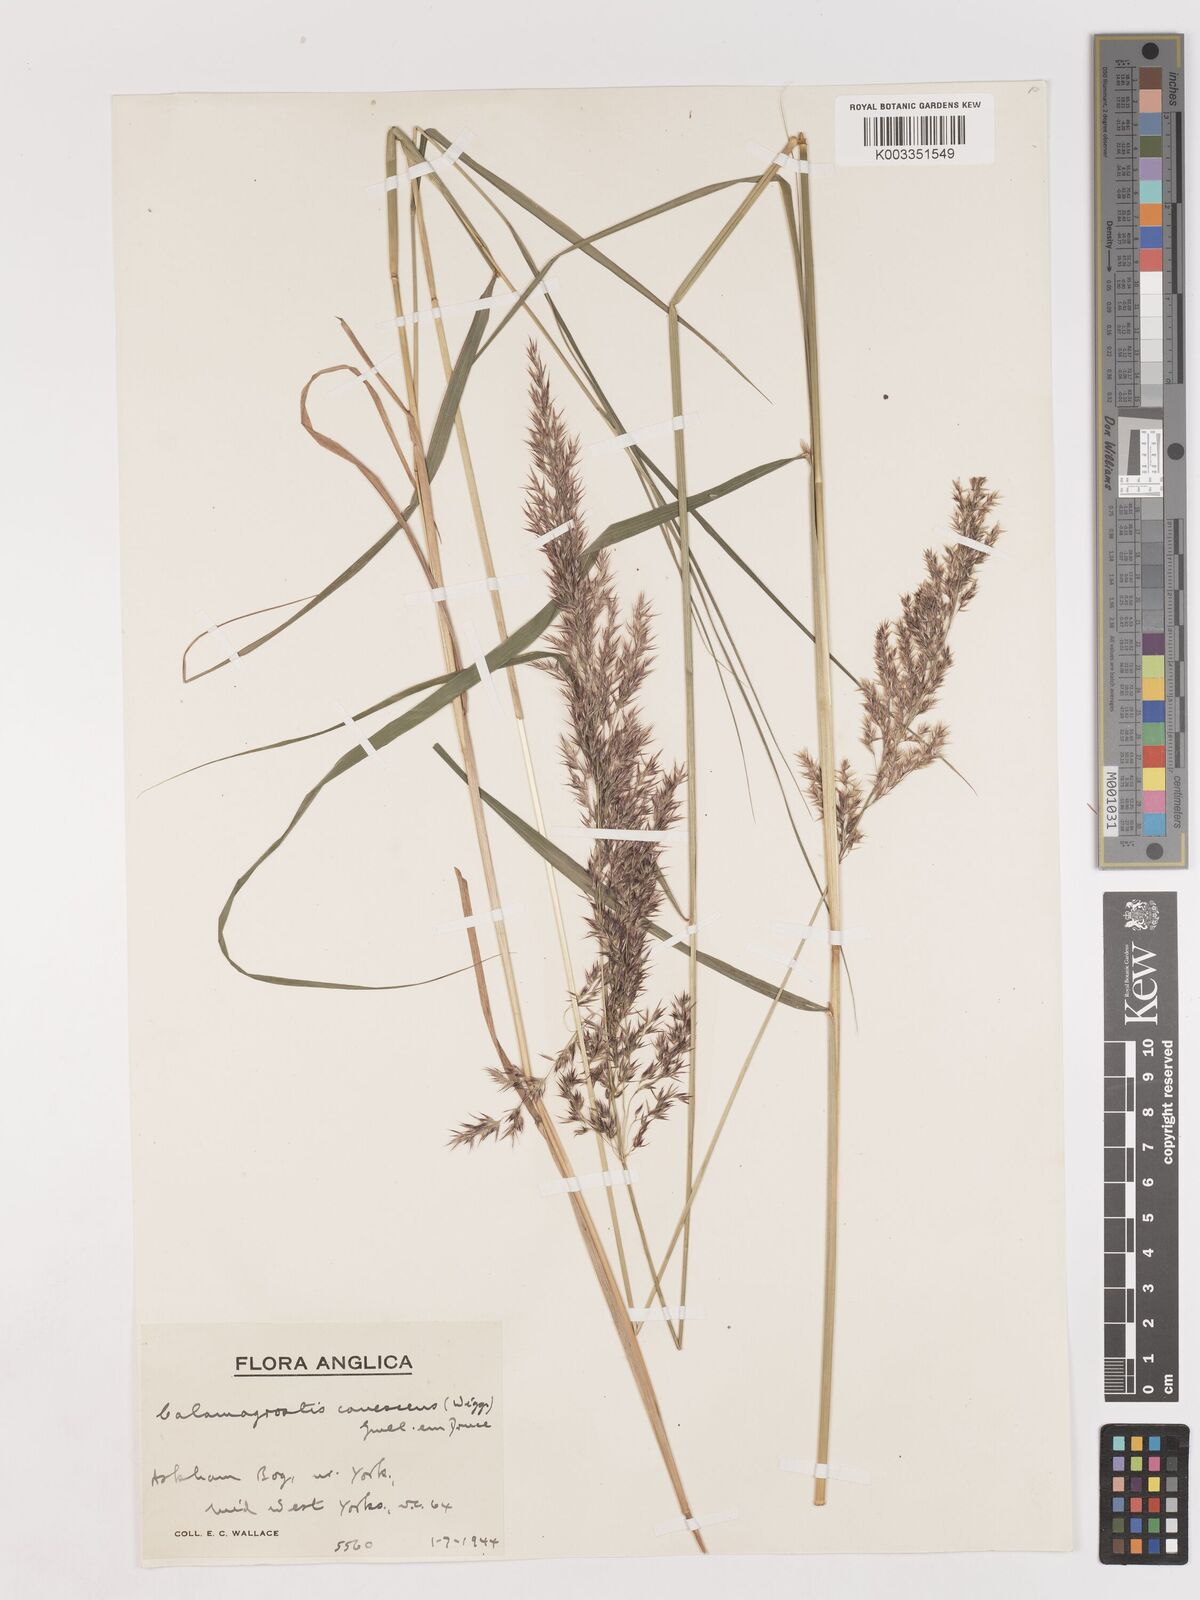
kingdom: Plantae
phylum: Tracheophyta
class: Liliopsida
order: Poales
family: Poaceae
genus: Calamagrostis
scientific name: Calamagrostis canescens
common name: Purple small-reed
